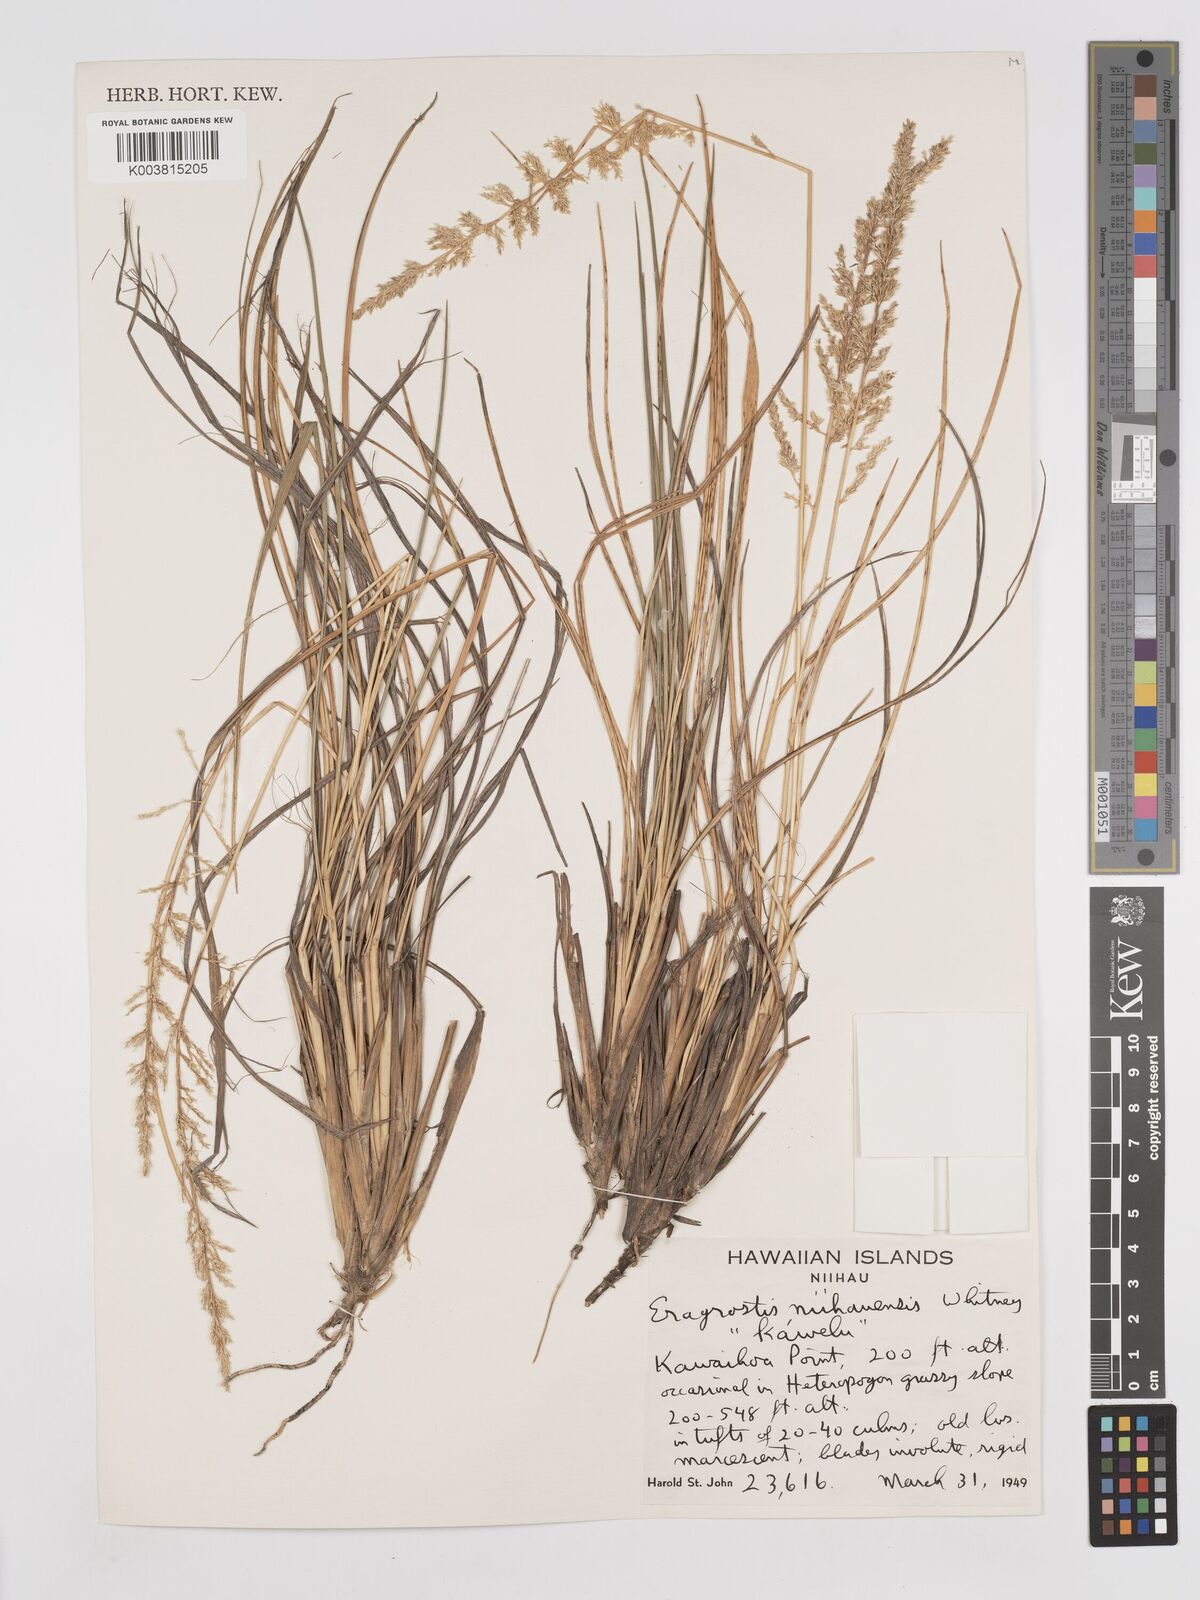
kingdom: Plantae
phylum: Tracheophyta
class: Liliopsida
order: Poales
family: Poaceae
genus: Eragrostis
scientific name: Eragrostis variabilis
